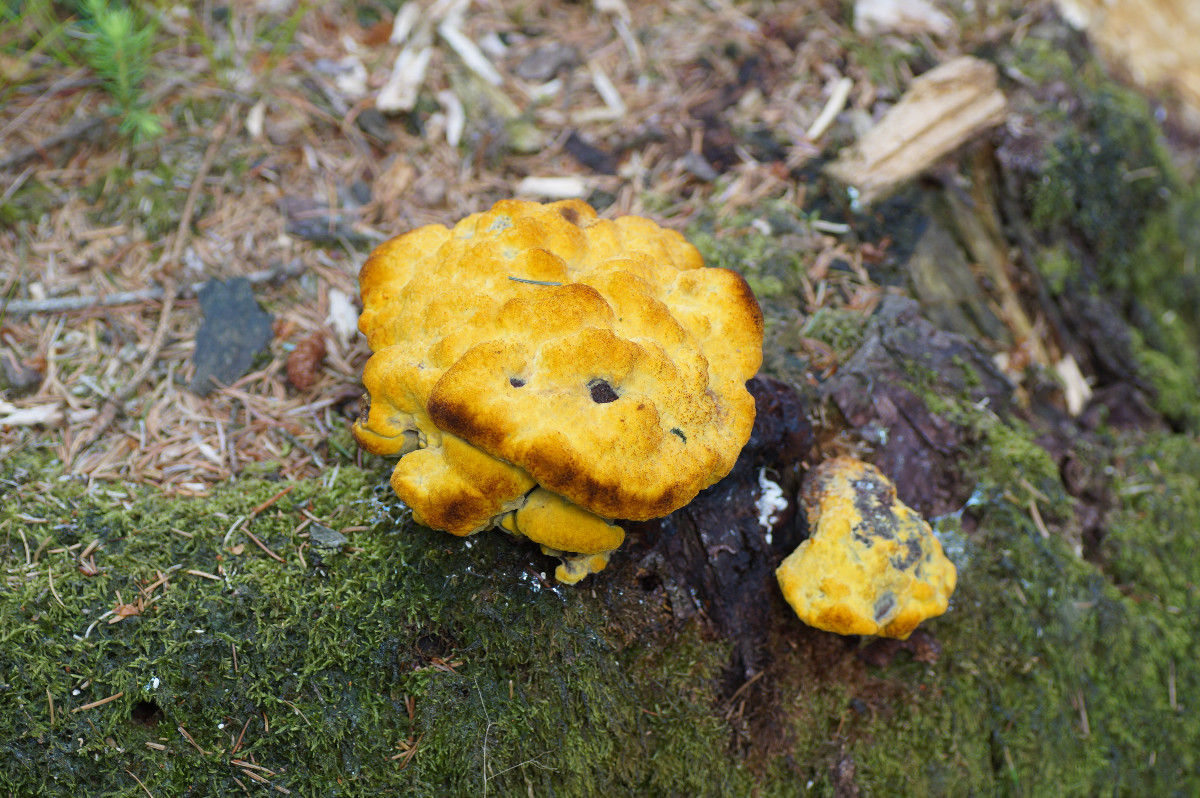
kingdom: Fungi
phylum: Basidiomycota
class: Agaricomycetes
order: Polyporales
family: Laetiporaceae
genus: Phaeolus
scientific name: Phaeolus schweinitzii
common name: brunporesvamp
